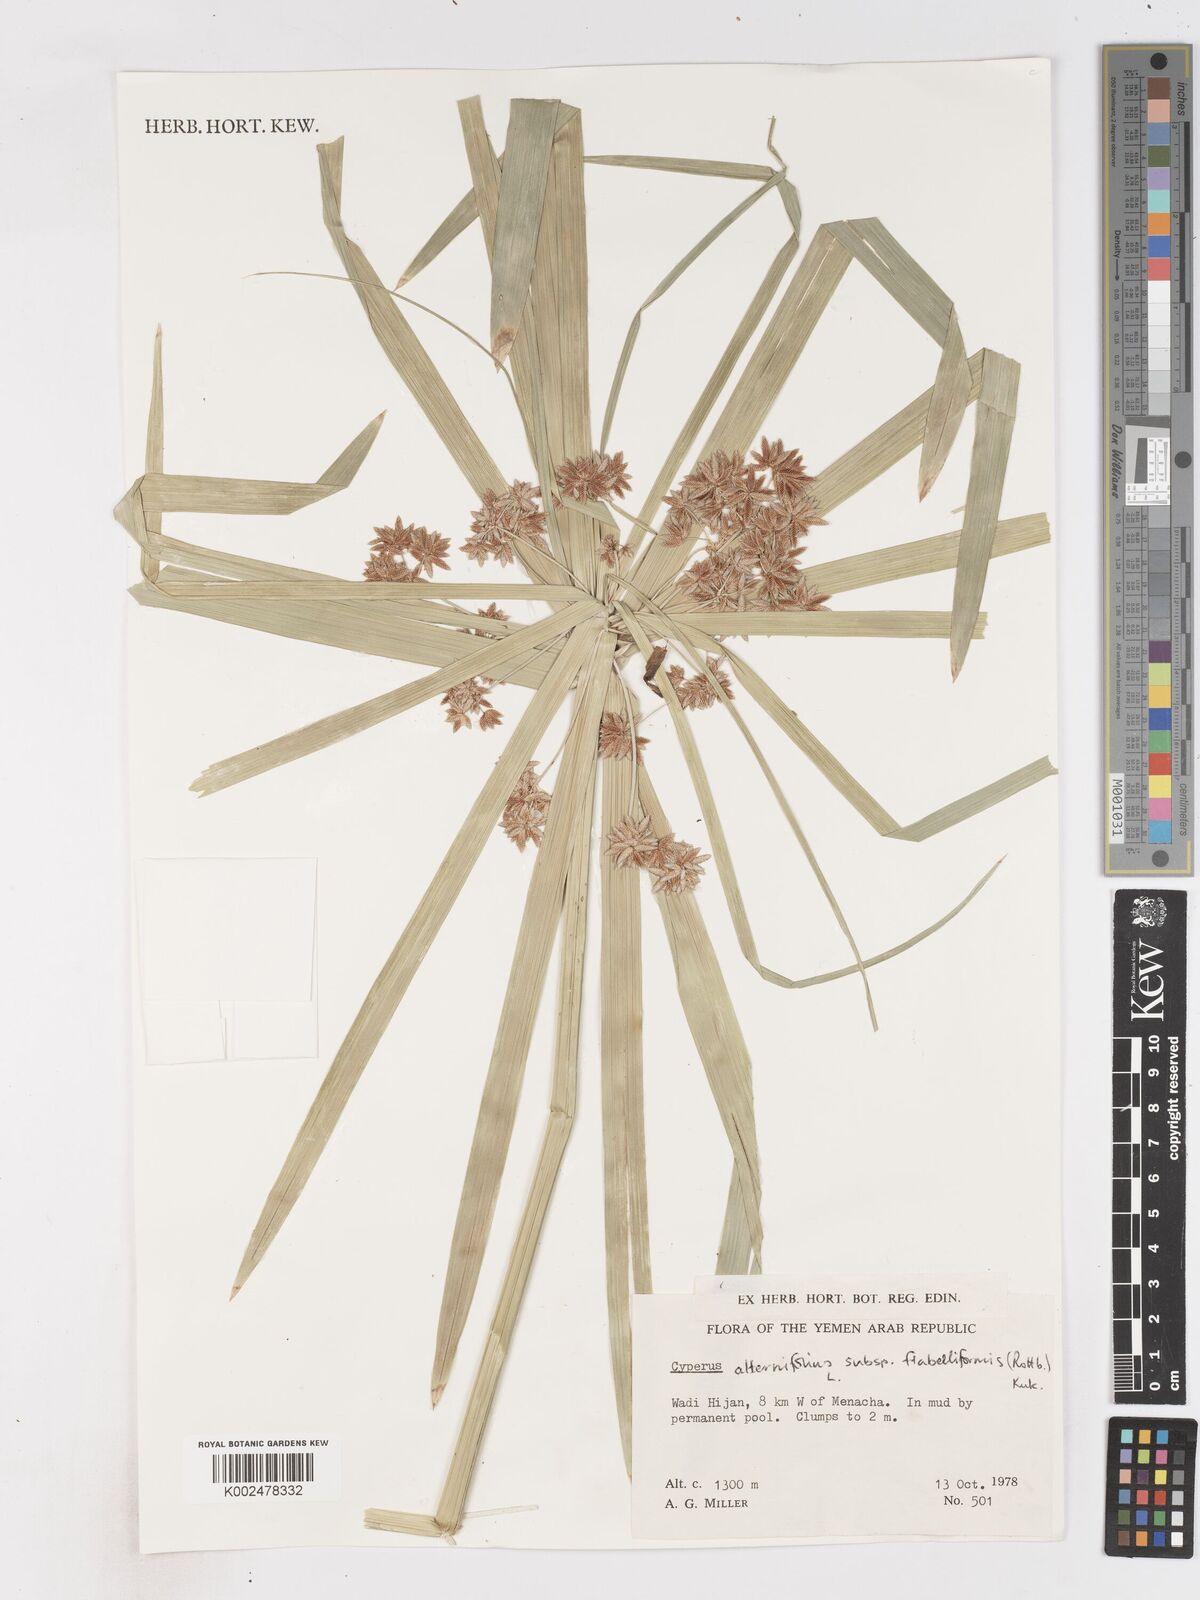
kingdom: Plantae
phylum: Tracheophyta
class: Liliopsida
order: Poales
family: Cyperaceae
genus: Cyperus
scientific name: Cyperus alternifolius
